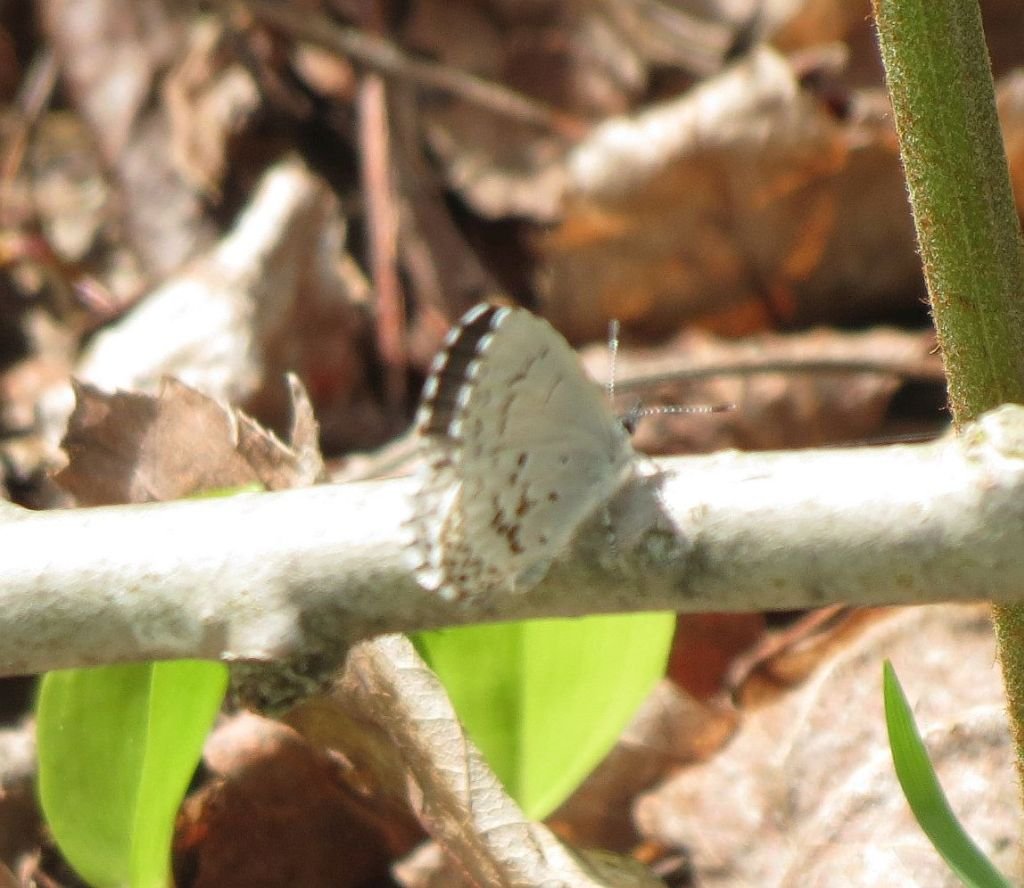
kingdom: Animalia
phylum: Arthropoda
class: Insecta
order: Lepidoptera
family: Lycaenidae
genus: Celastrina
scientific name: Celastrina lucia
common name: Northern Spring Azure
